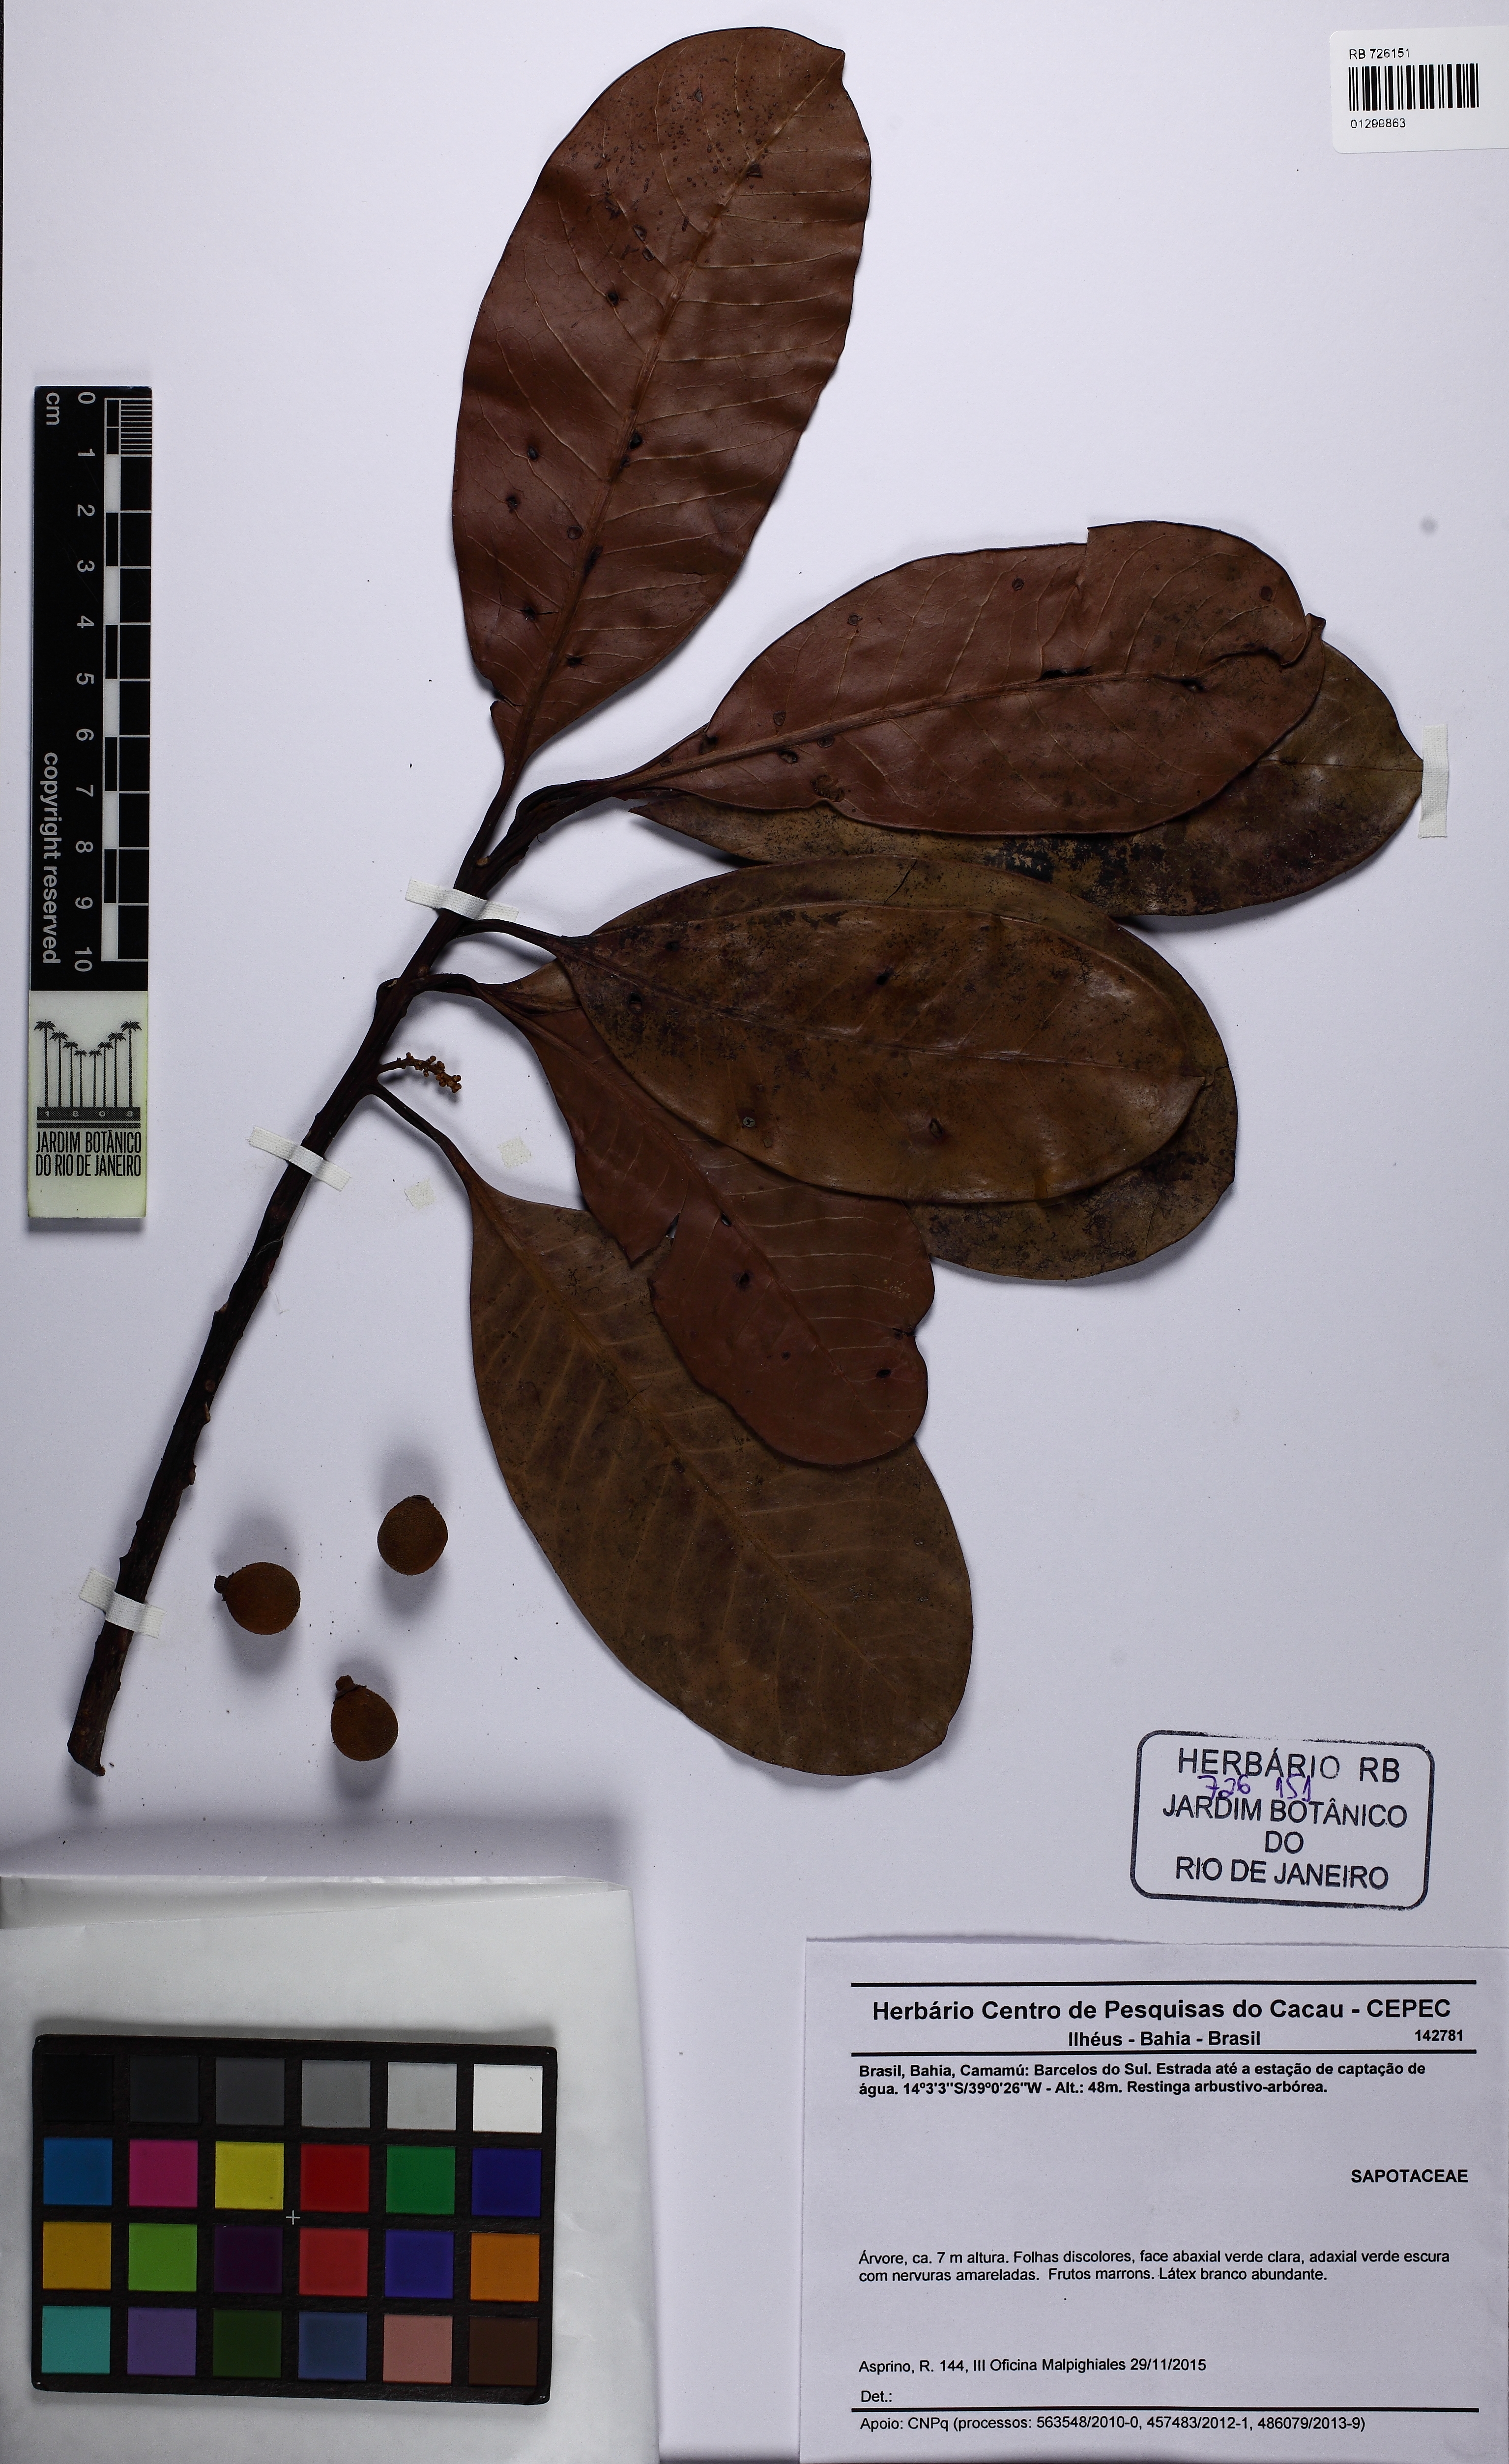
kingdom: Plantae
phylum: Tracheophyta
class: Magnoliopsida
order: Ericales
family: Sapotaceae
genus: Pouteria
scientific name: Pouteria macahensis
